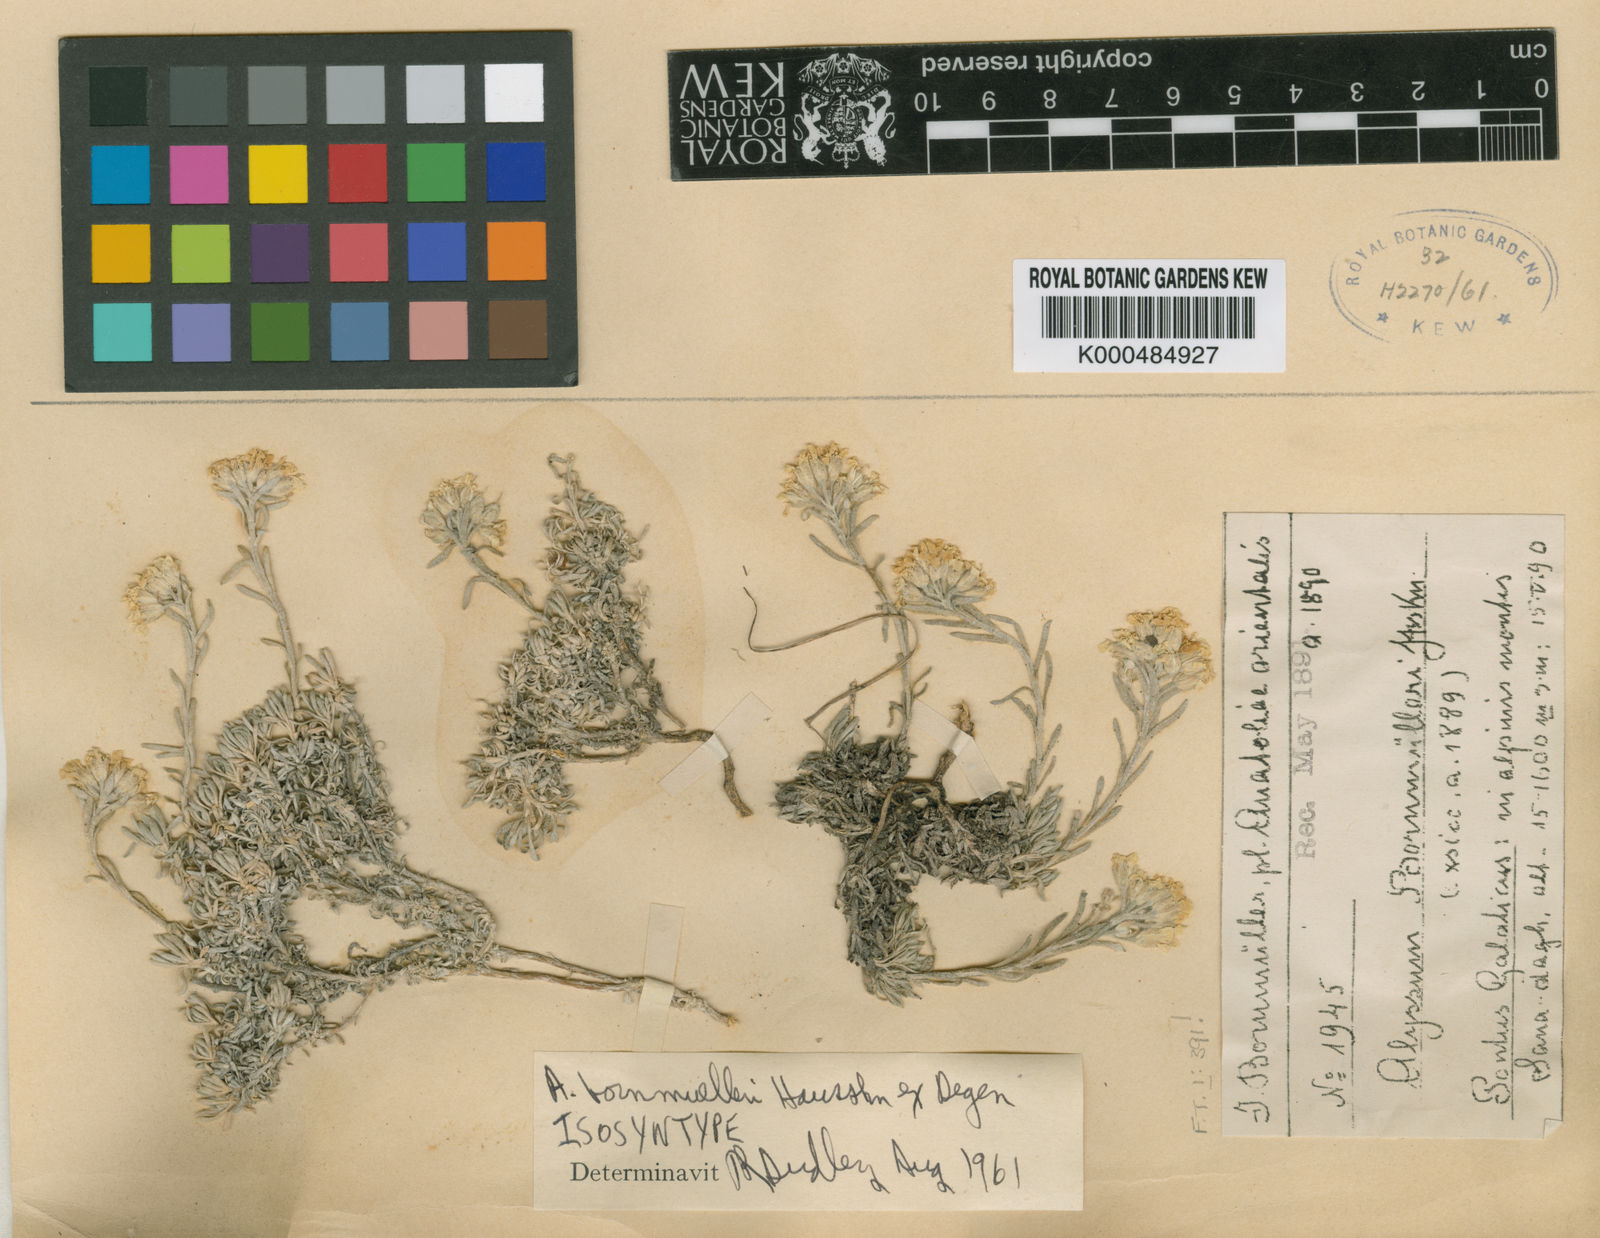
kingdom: Plantae
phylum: Tracheophyta
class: Magnoliopsida
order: Brassicales
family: Brassicaceae
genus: Alyssum
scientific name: Alyssum bornmuelleri
